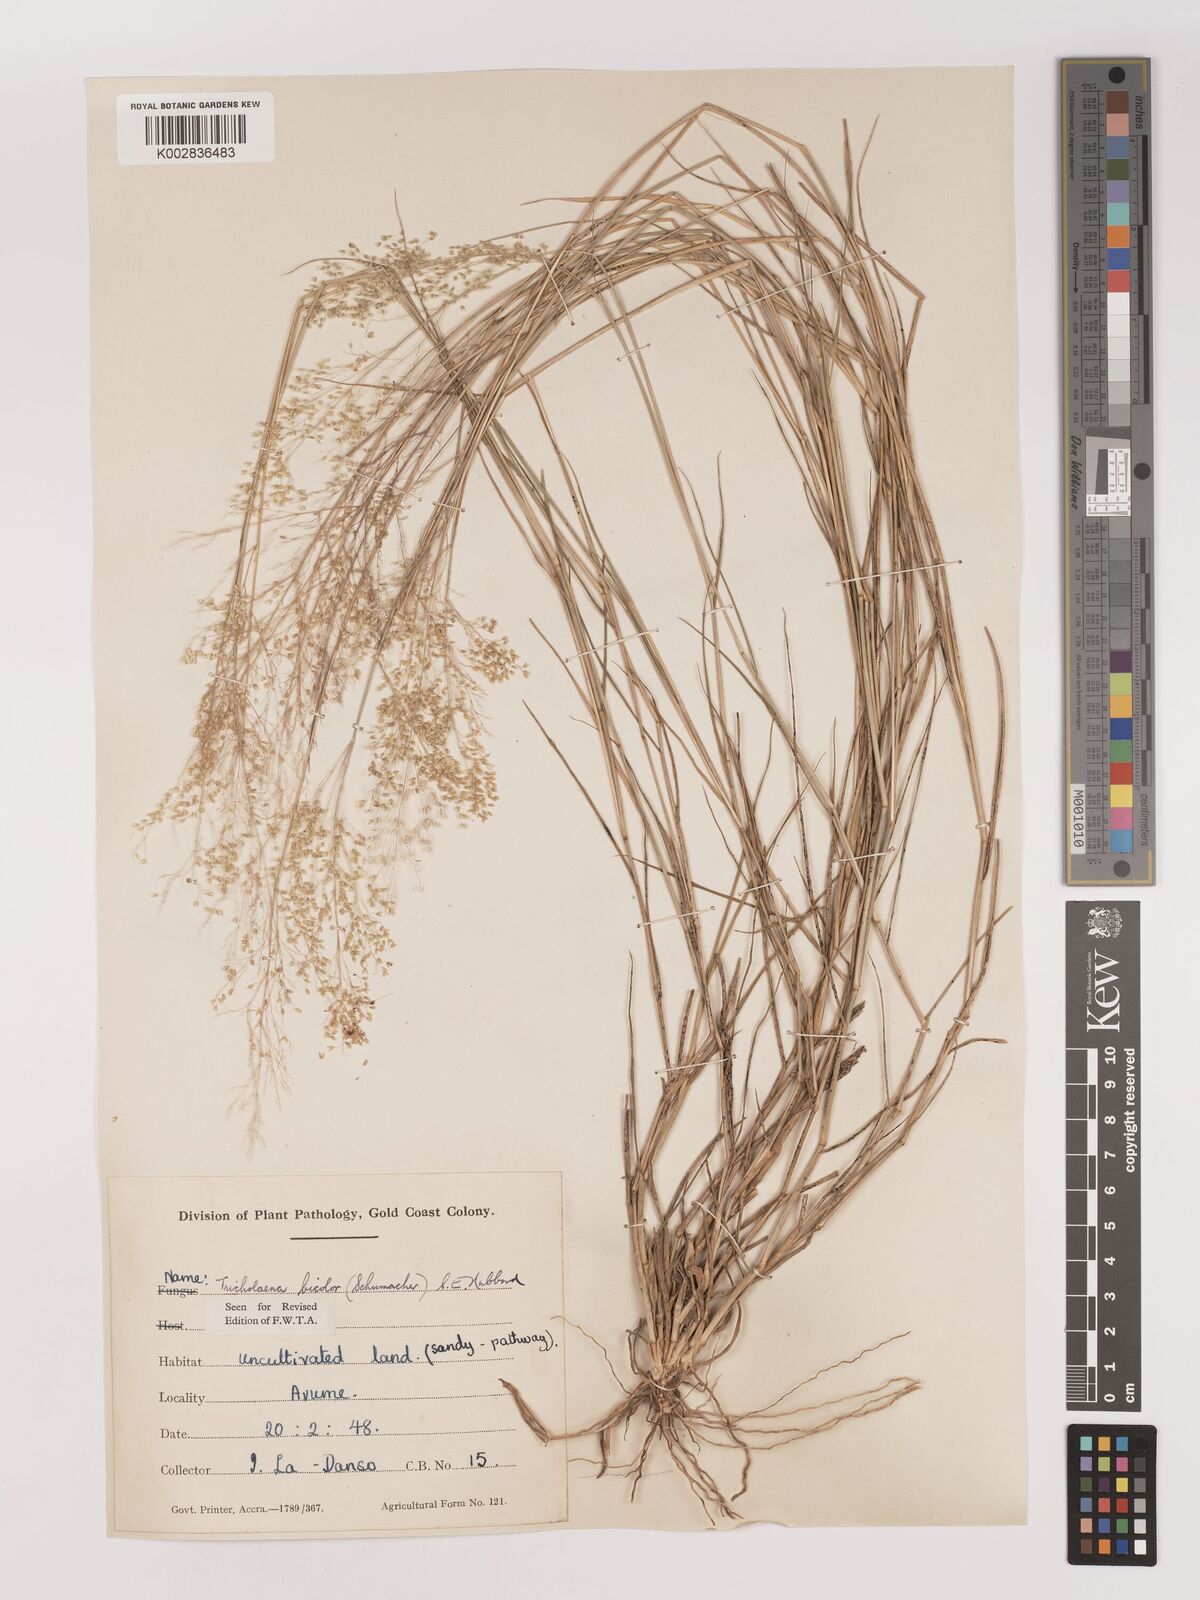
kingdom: Plantae
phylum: Tracheophyta
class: Liliopsida
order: Poales
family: Poaceae
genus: Tricholaena
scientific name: Tricholaena monachne
